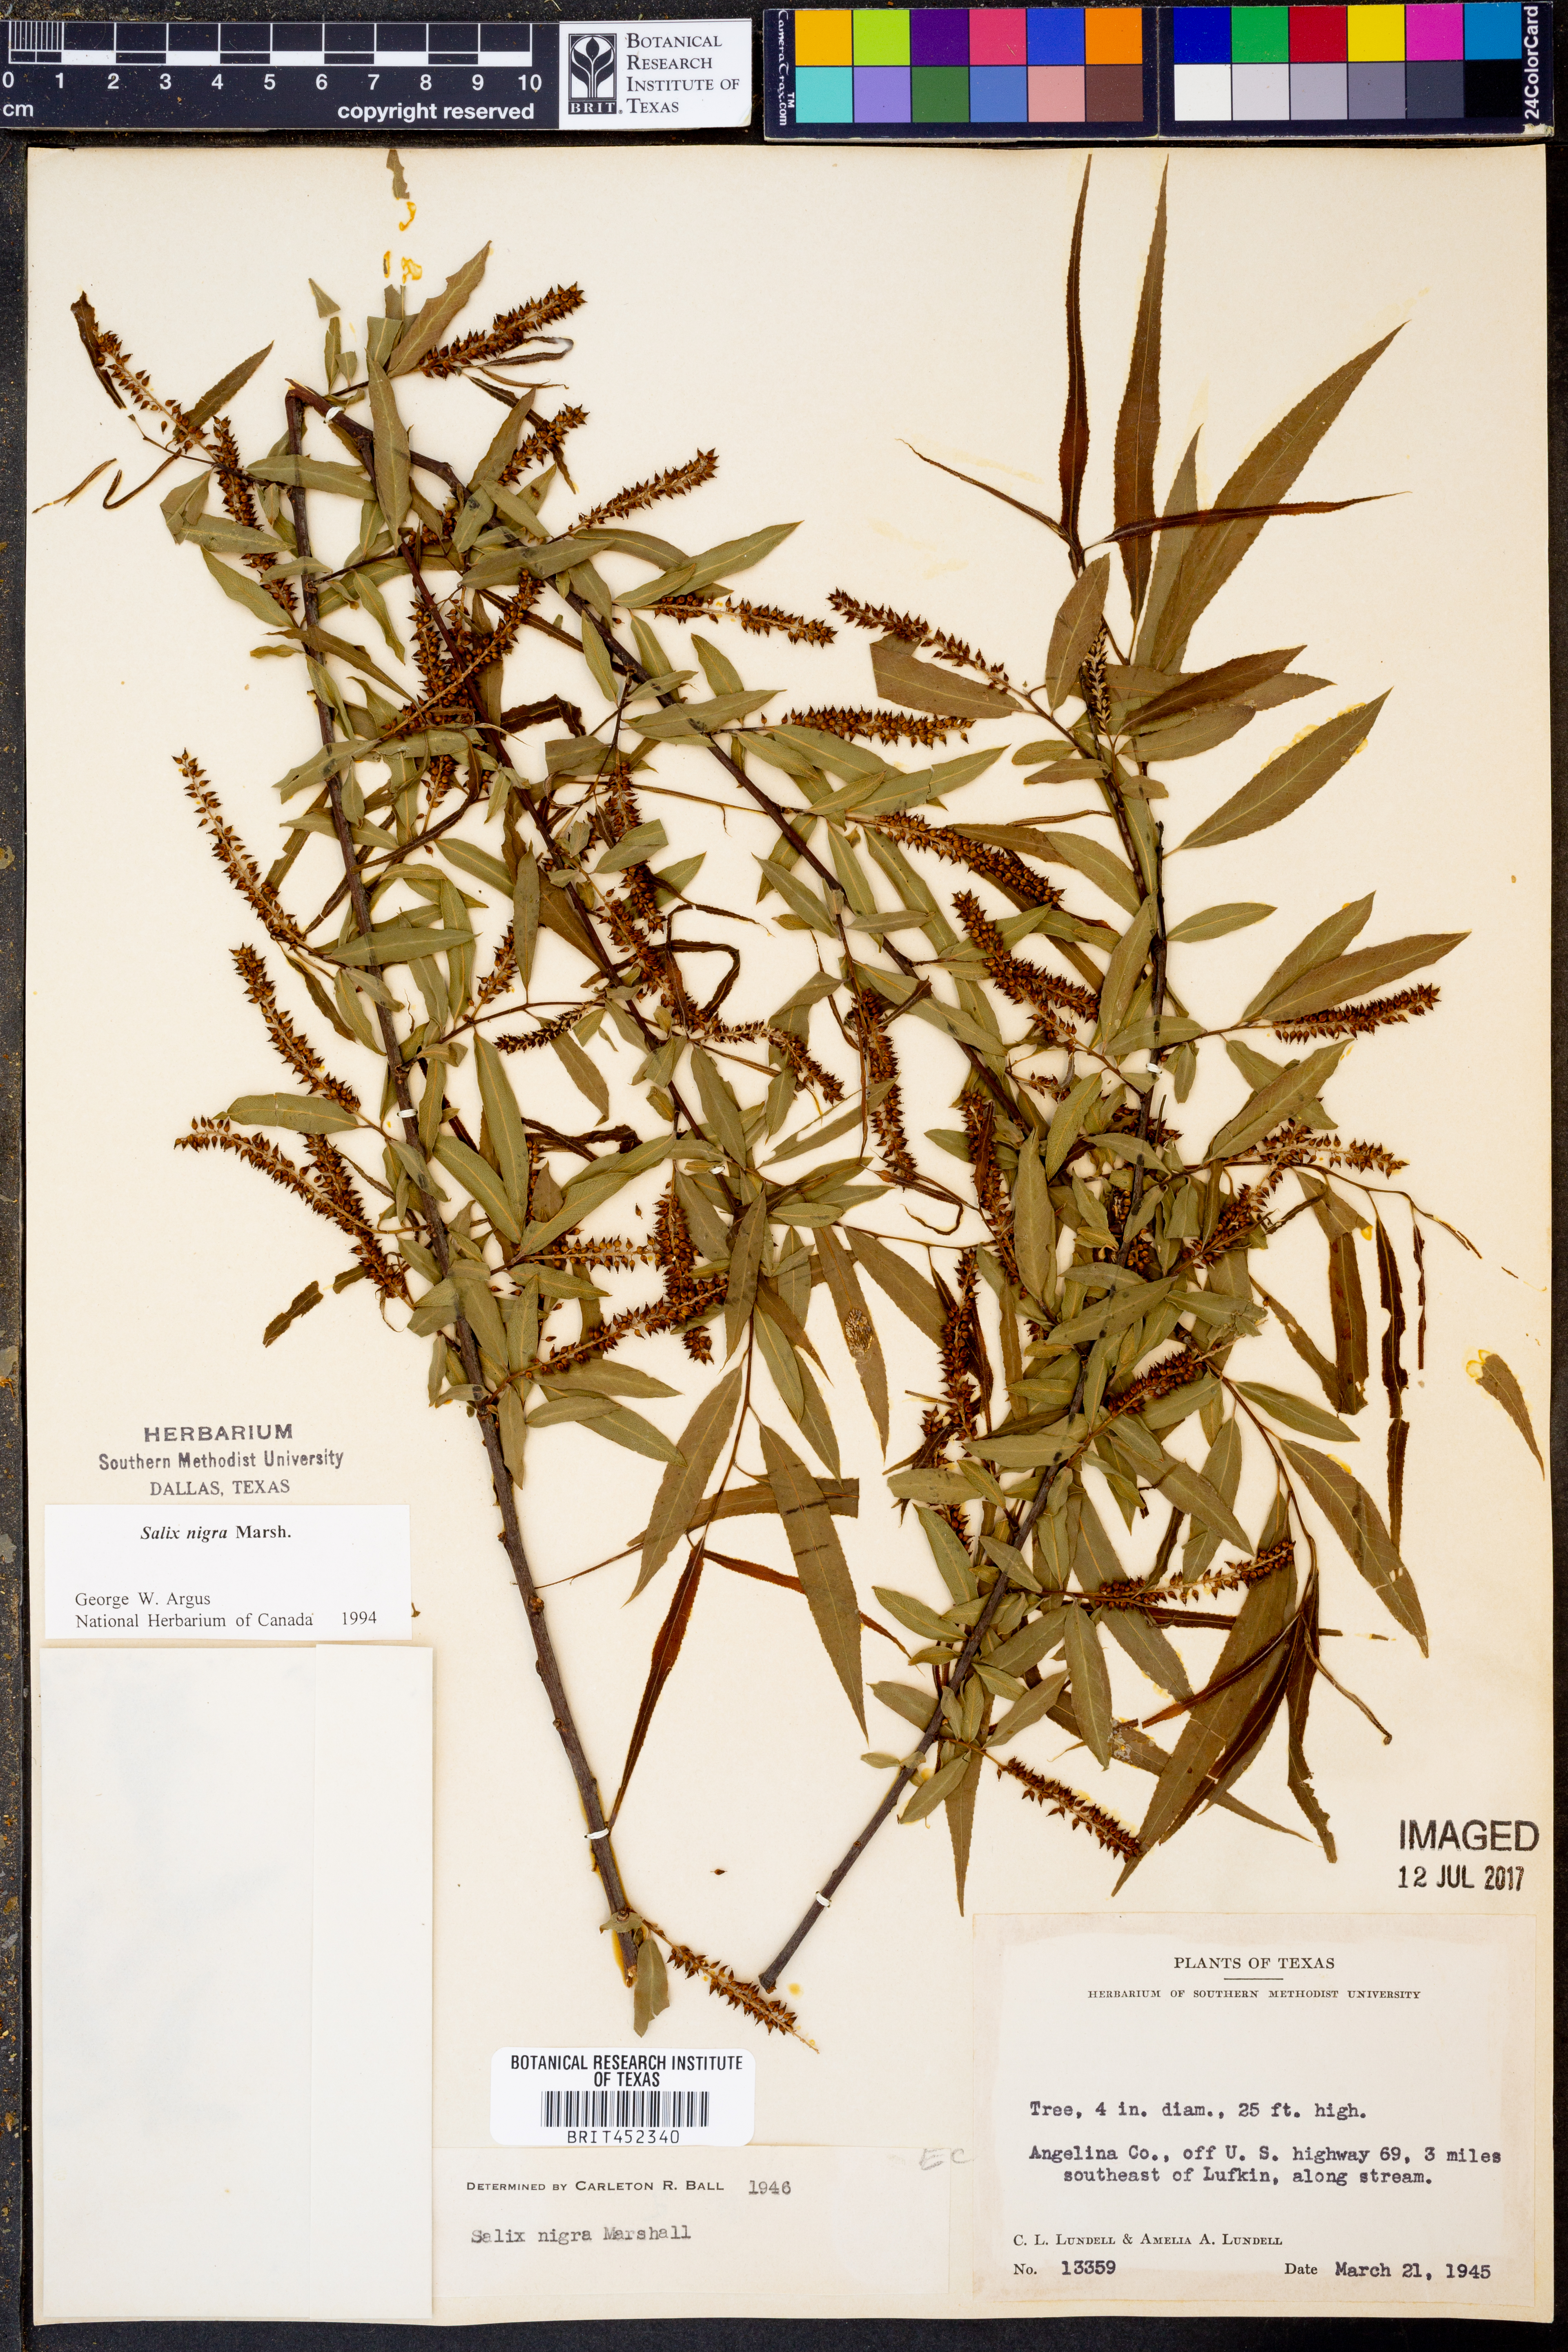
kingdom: Plantae
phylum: Tracheophyta
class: Magnoliopsida
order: Malpighiales
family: Salicaceae
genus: Salix
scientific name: Salix nigra
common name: Black willow
